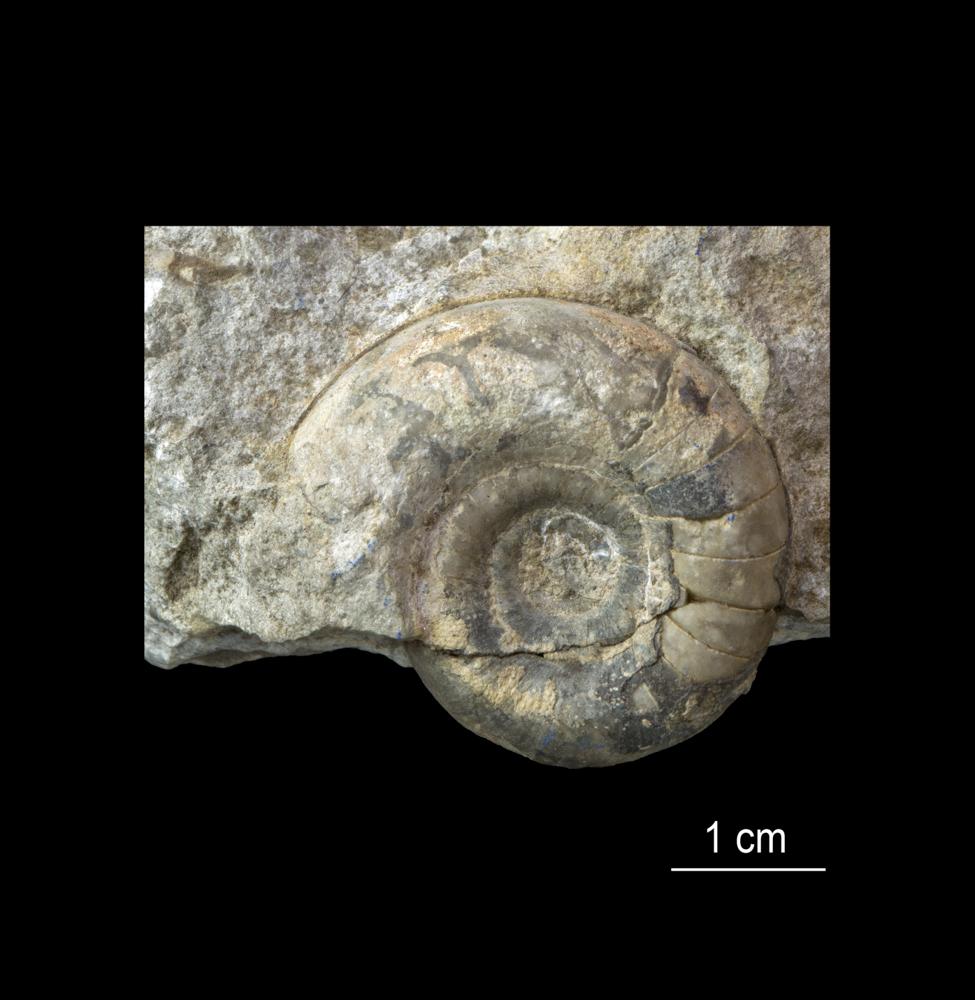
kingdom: Animalia
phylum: Mollusca
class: Cephalopoda
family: Trocholitidae
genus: Discoceras
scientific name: Discoceras
